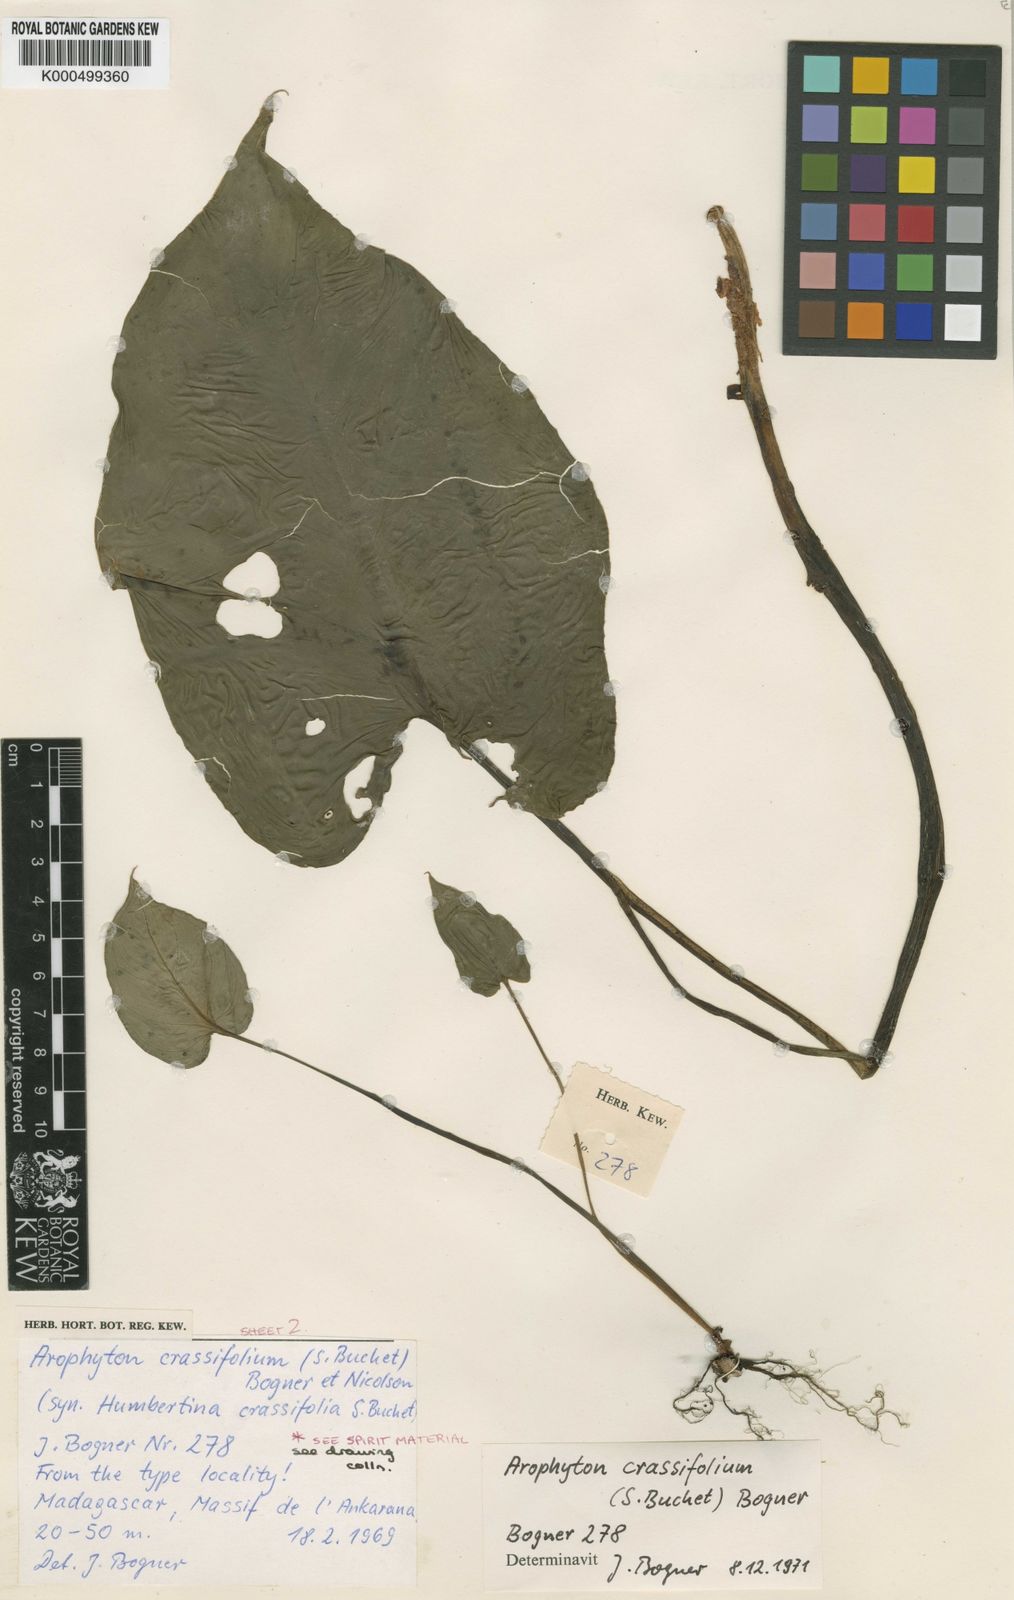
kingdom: Plantae
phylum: Tracheophyta
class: Liliopsida
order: Alismatales
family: Araceae
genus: Arophyton
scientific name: Arophyton crassifolium
